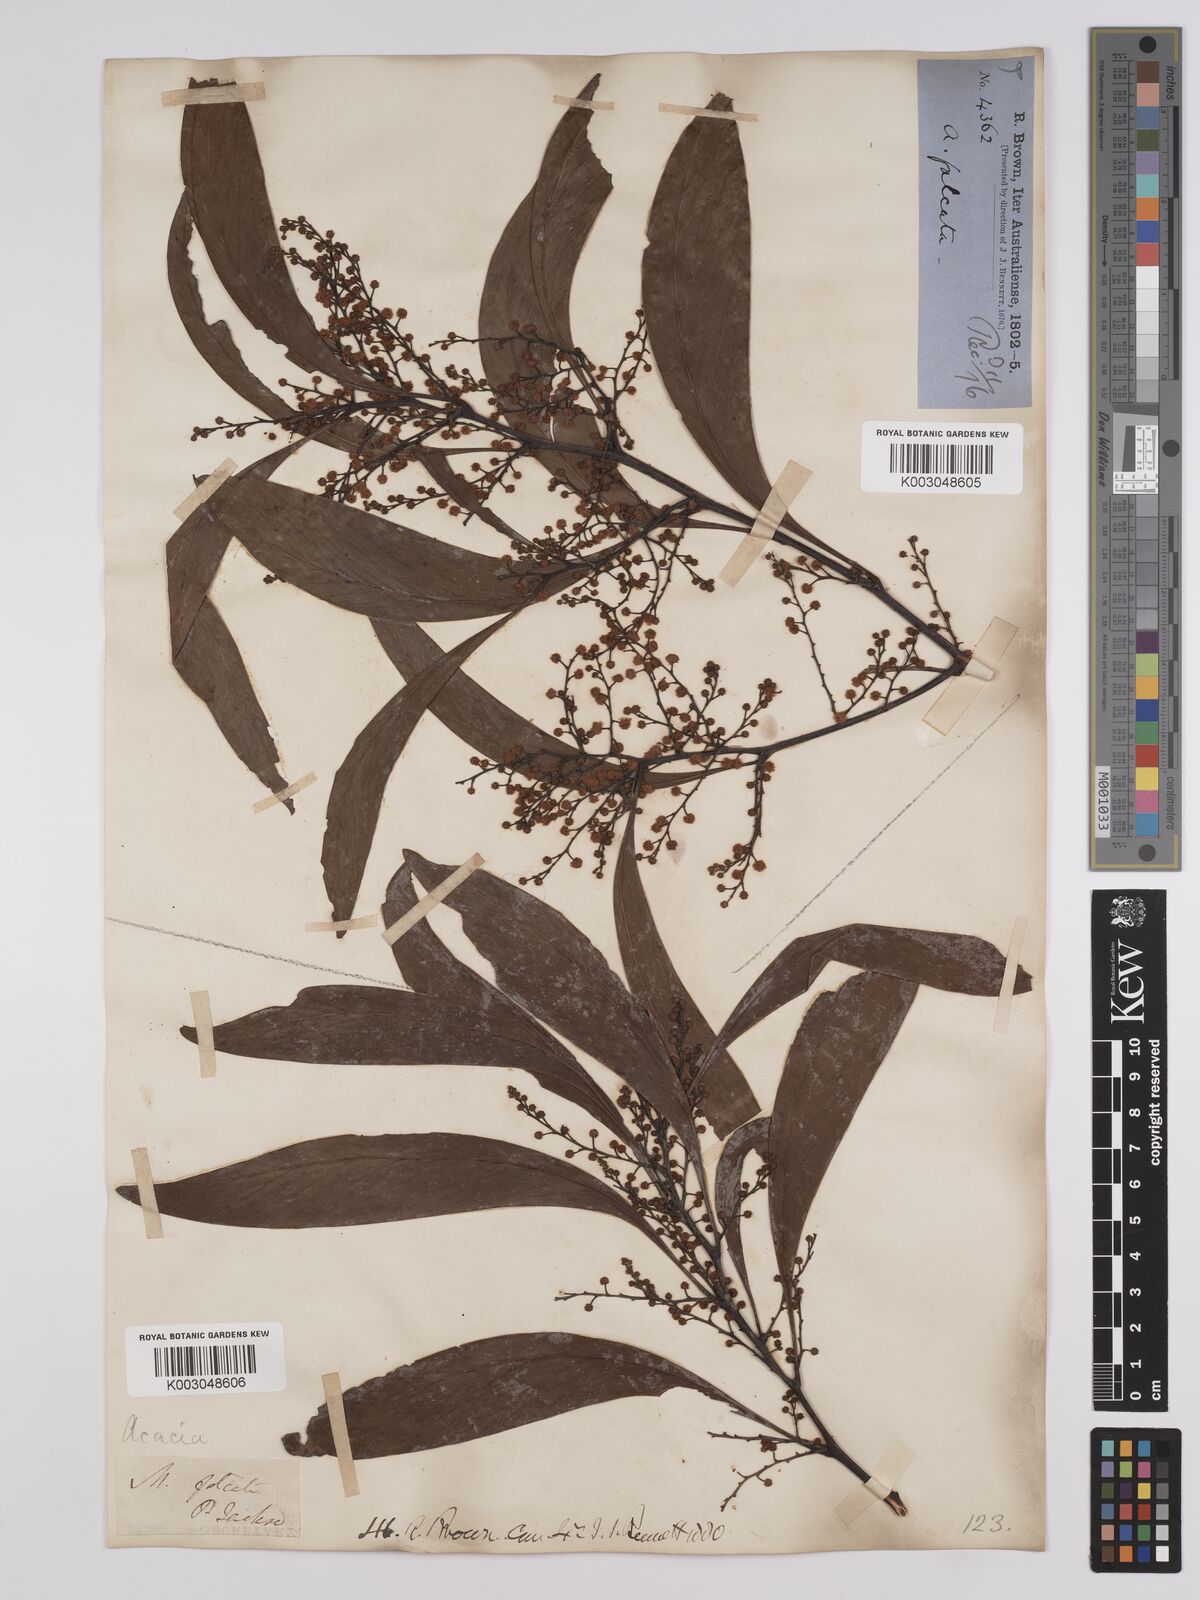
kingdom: Plantae
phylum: Tracheophyta
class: Magnoliopsida
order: Fabales
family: Fabaceae
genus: Acacia
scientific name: Acacia falcata
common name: Burra acacia
